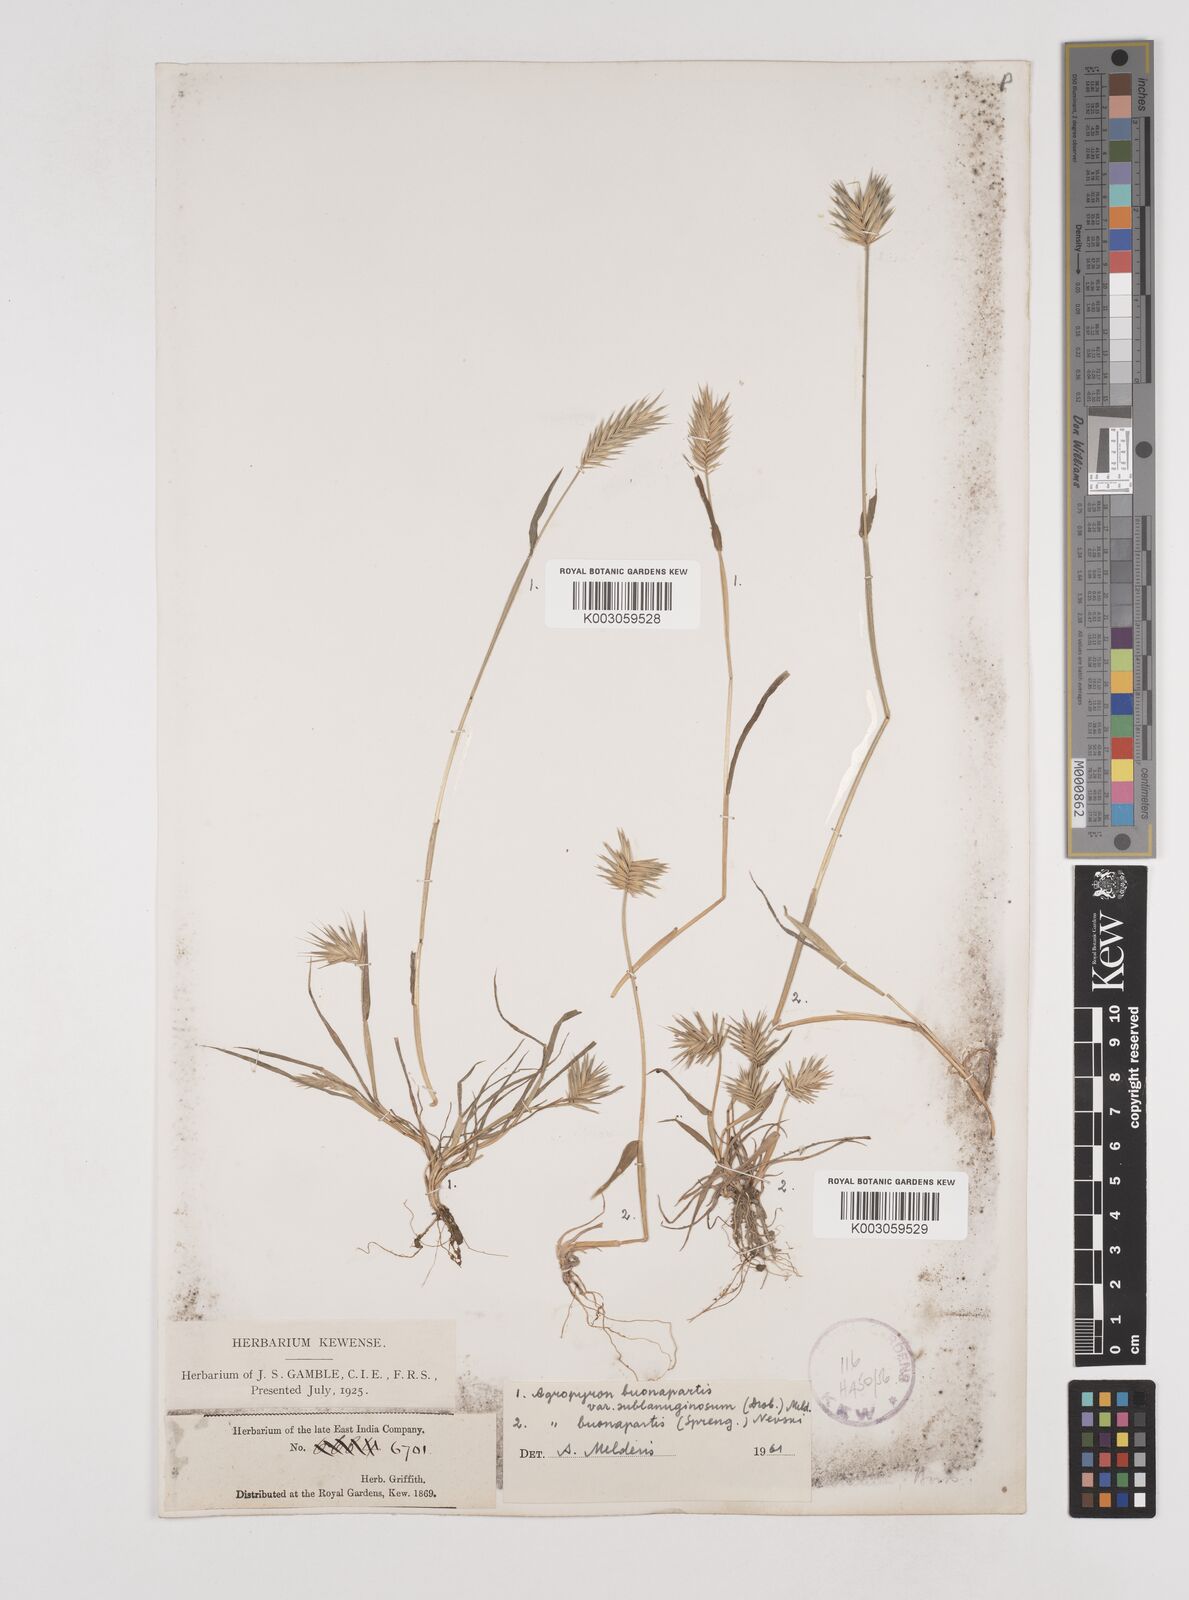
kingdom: Plantae
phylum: Tracheophyta
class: Liliopsida
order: Poales
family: Poaceae
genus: Eremopyrum
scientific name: Eremopyrum bonaepartis
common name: Tapertip false wheatgrass
